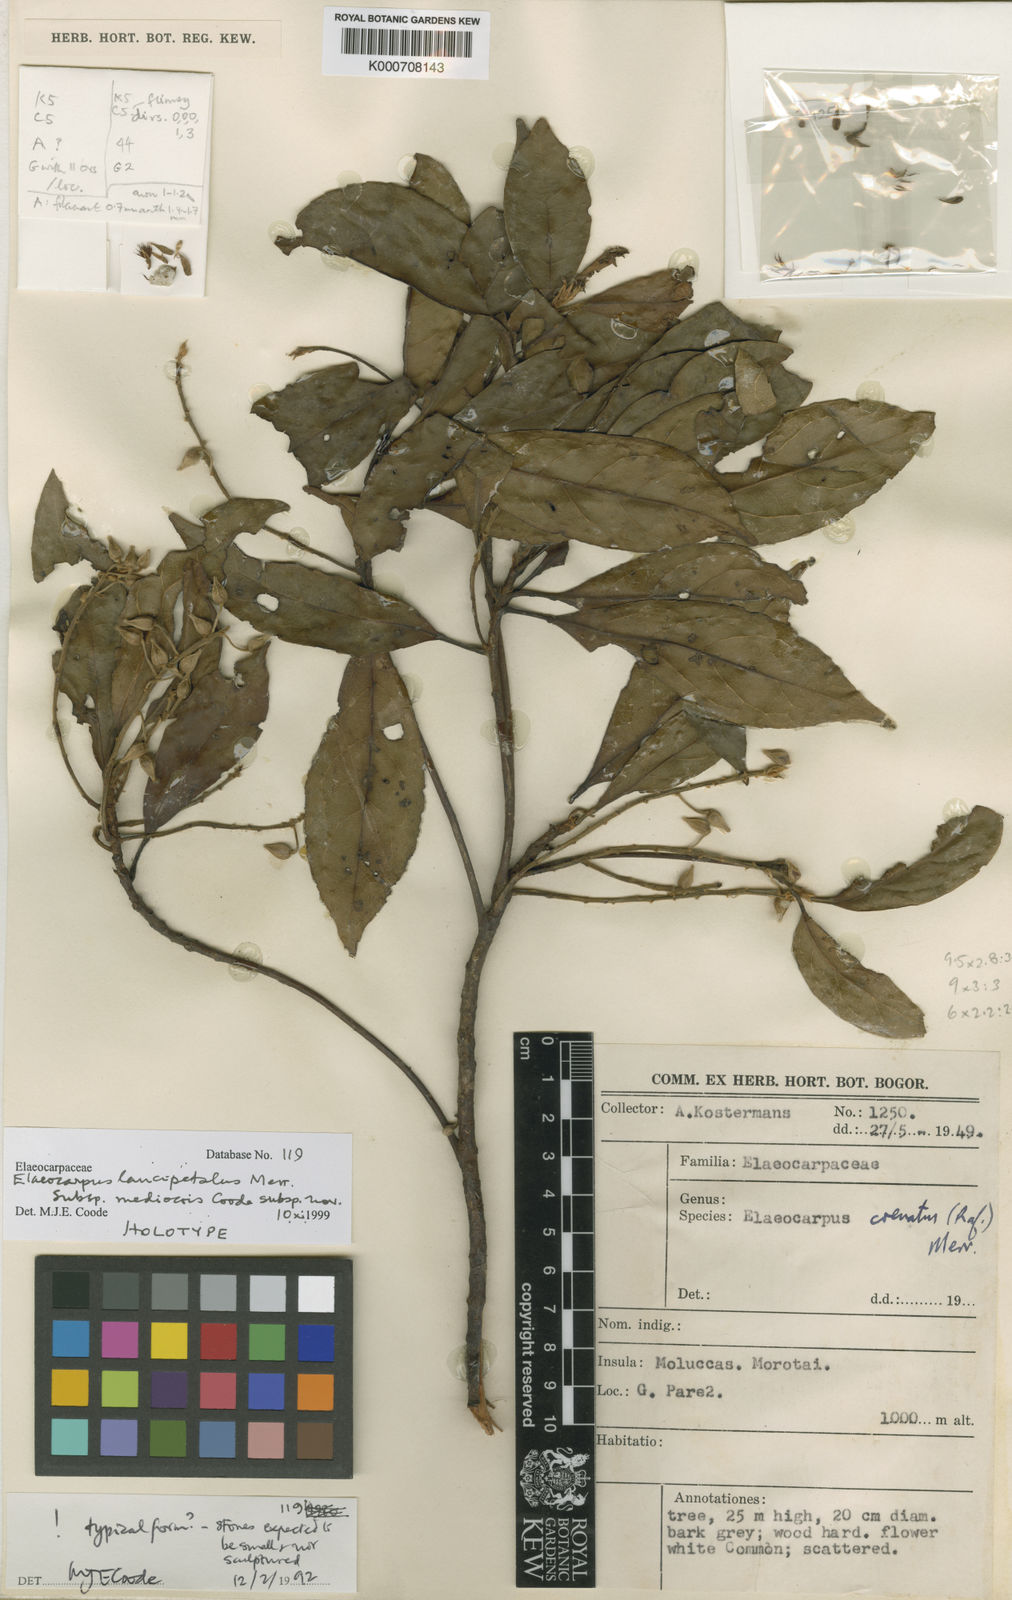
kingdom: Plantae
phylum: Tracheophyta
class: Magnoliopsida
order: Oxalidales
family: Elaeocarpaceae
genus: Elaeocarpus
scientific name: Elaeocarpus lancipetalus
